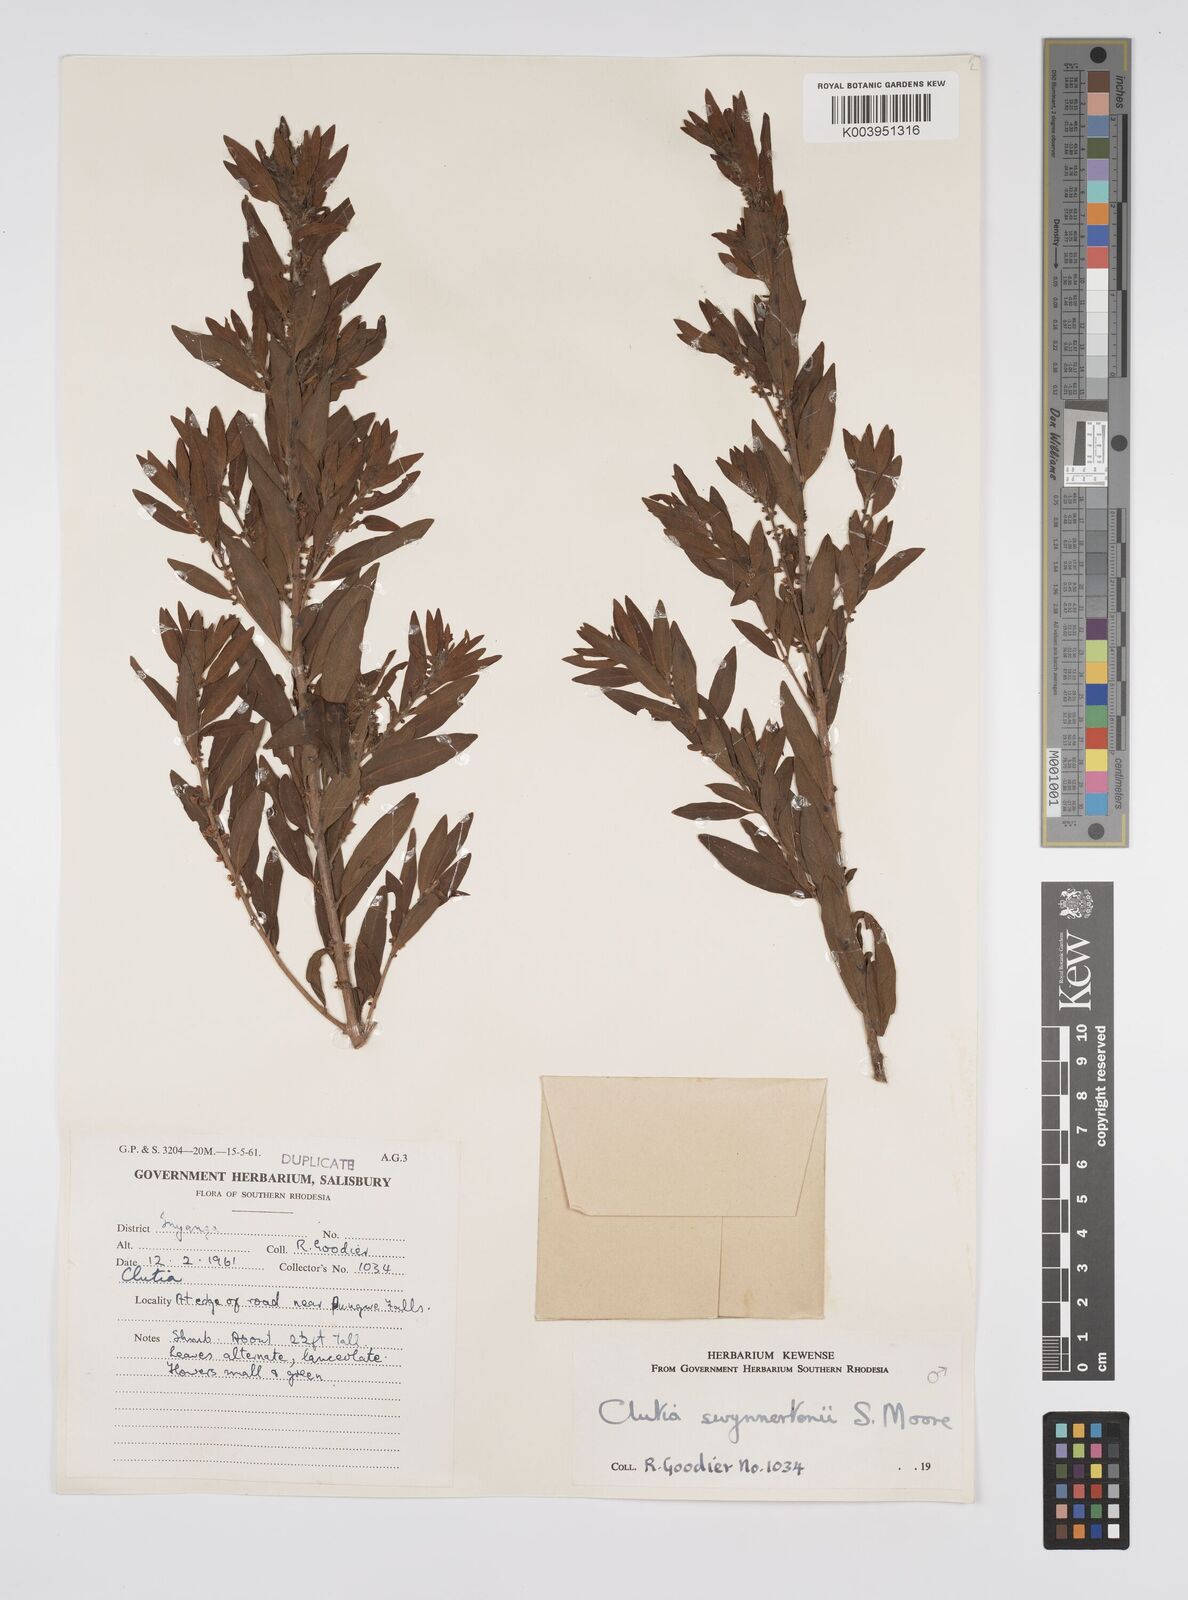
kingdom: Plantae
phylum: Tracheophyta
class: Magnoliopsida
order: Malpighiales
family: Peraceae
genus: Clutia
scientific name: Clutia swynnertonii
